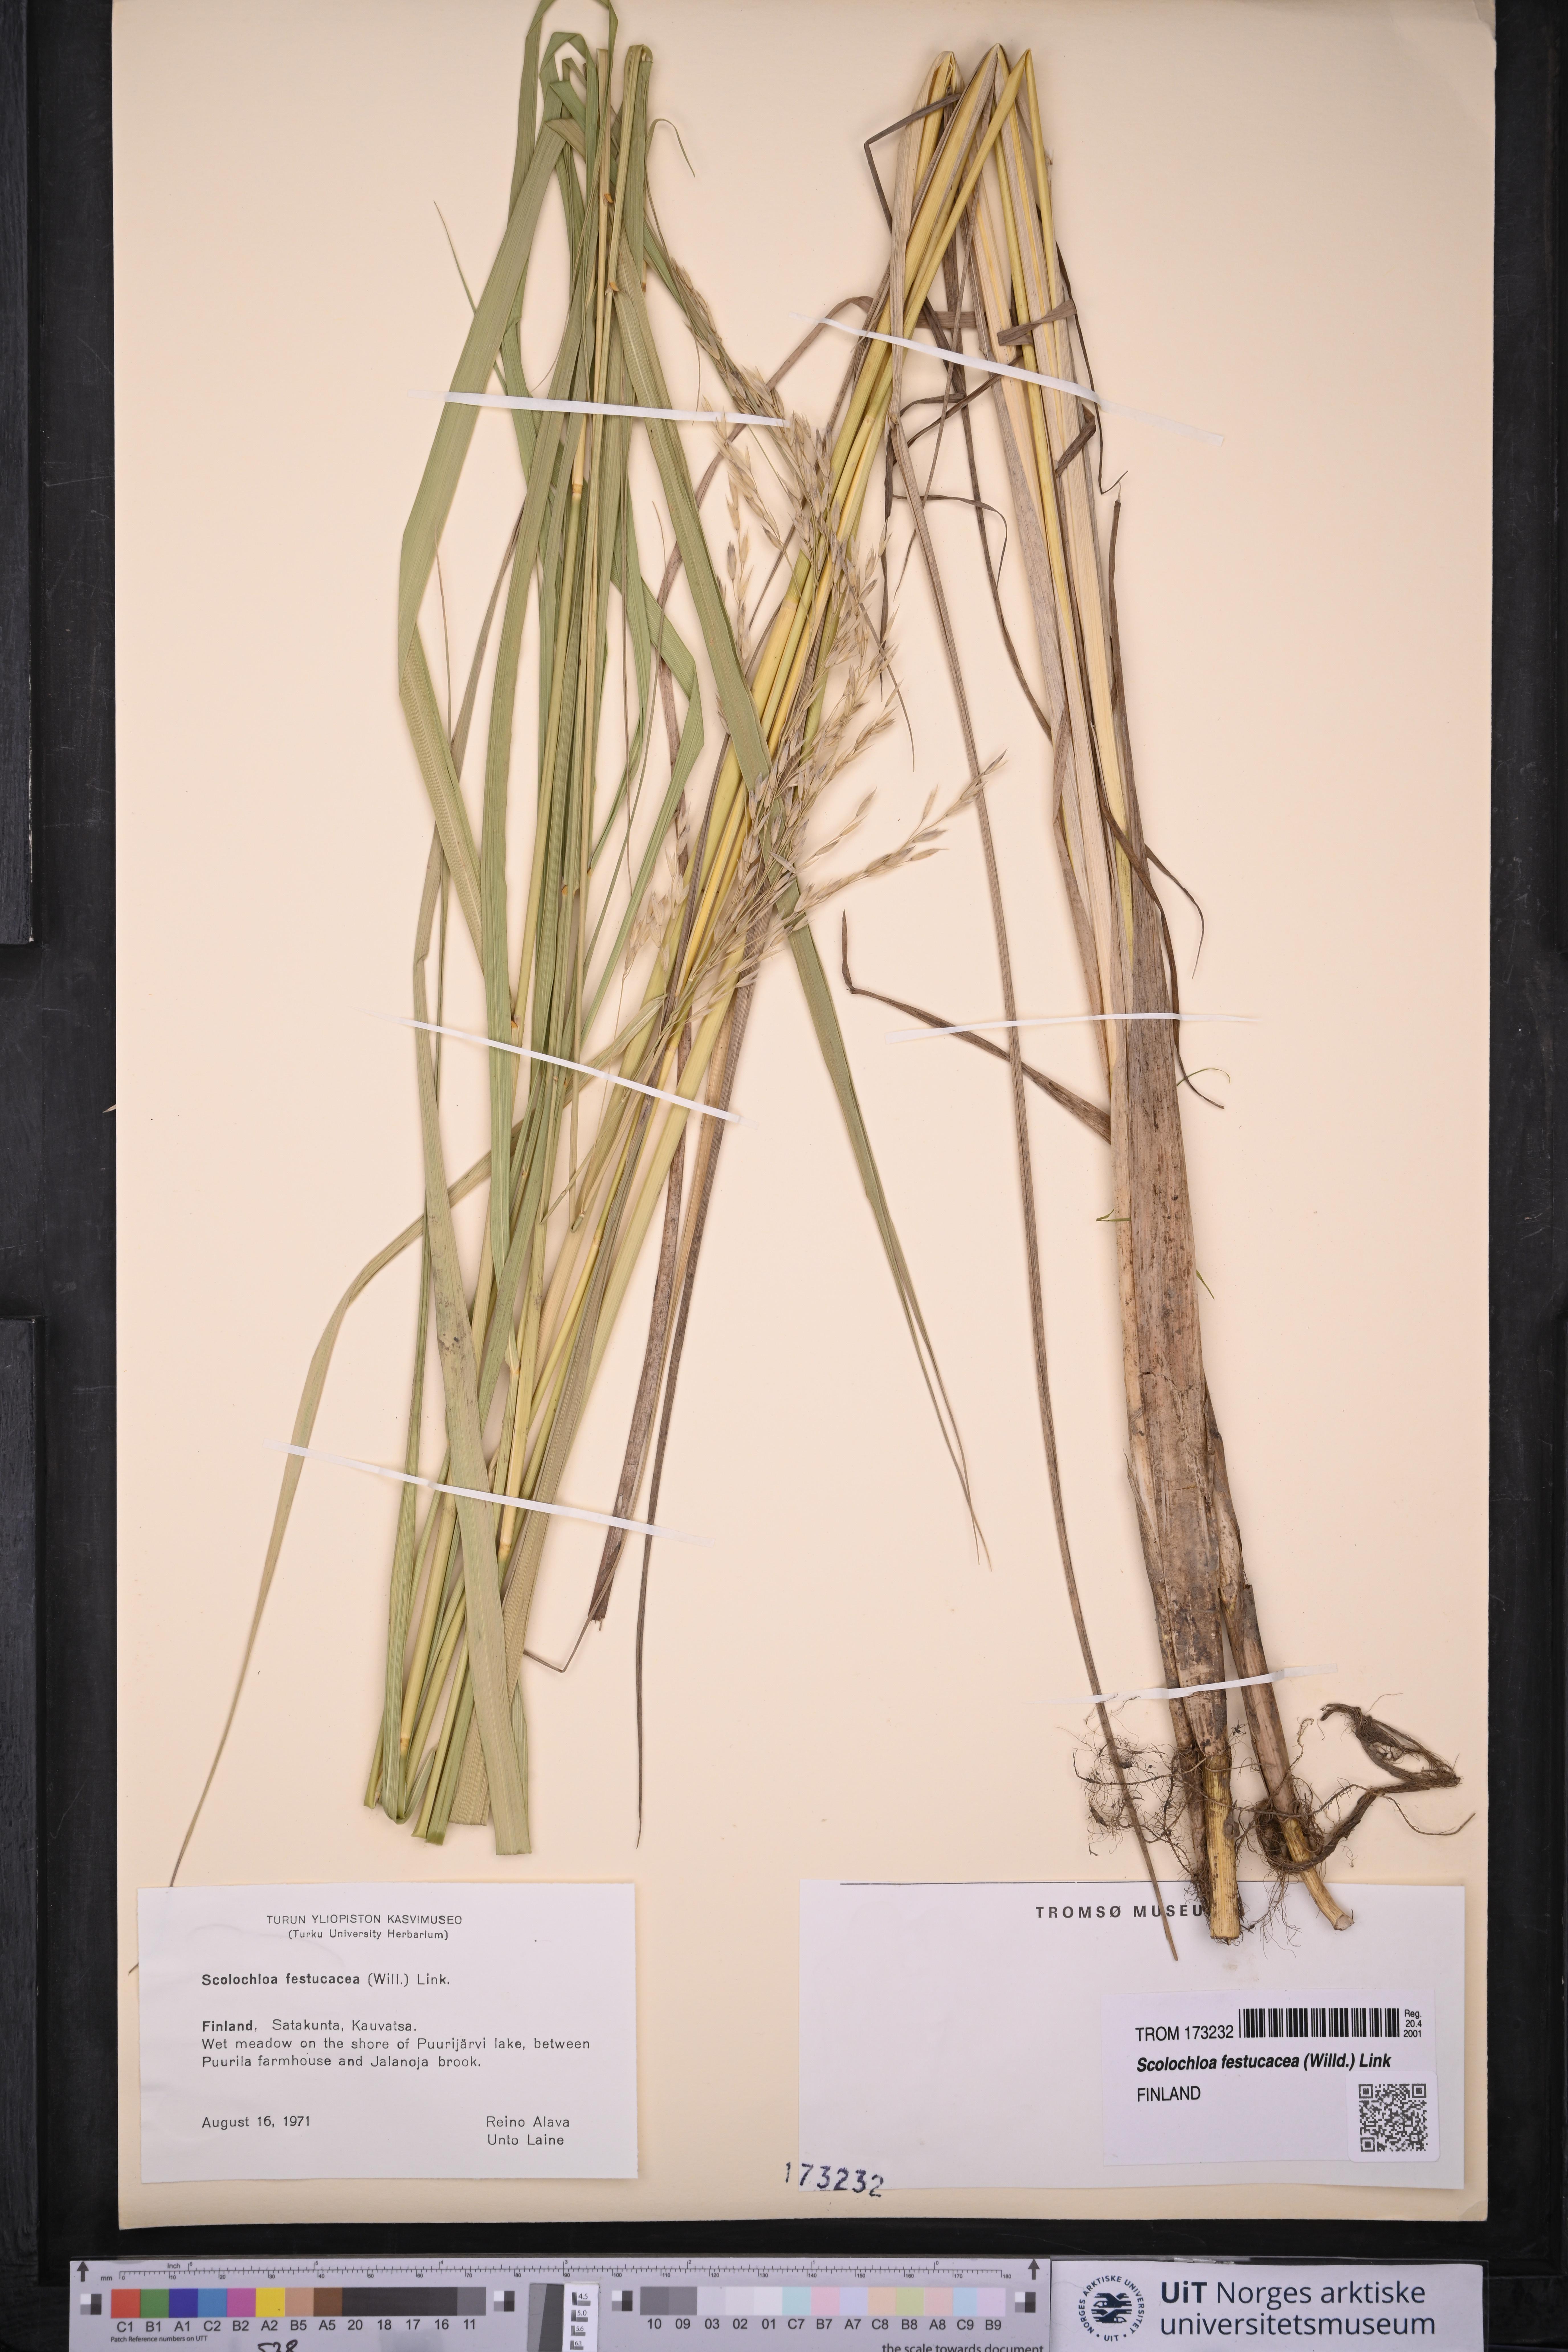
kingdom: Plantae
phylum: Tracheophyta
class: Liliopsida
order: Poales
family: Poaceae
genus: Scolochloa
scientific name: Scolochloa festucacea
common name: Common rivergrass
